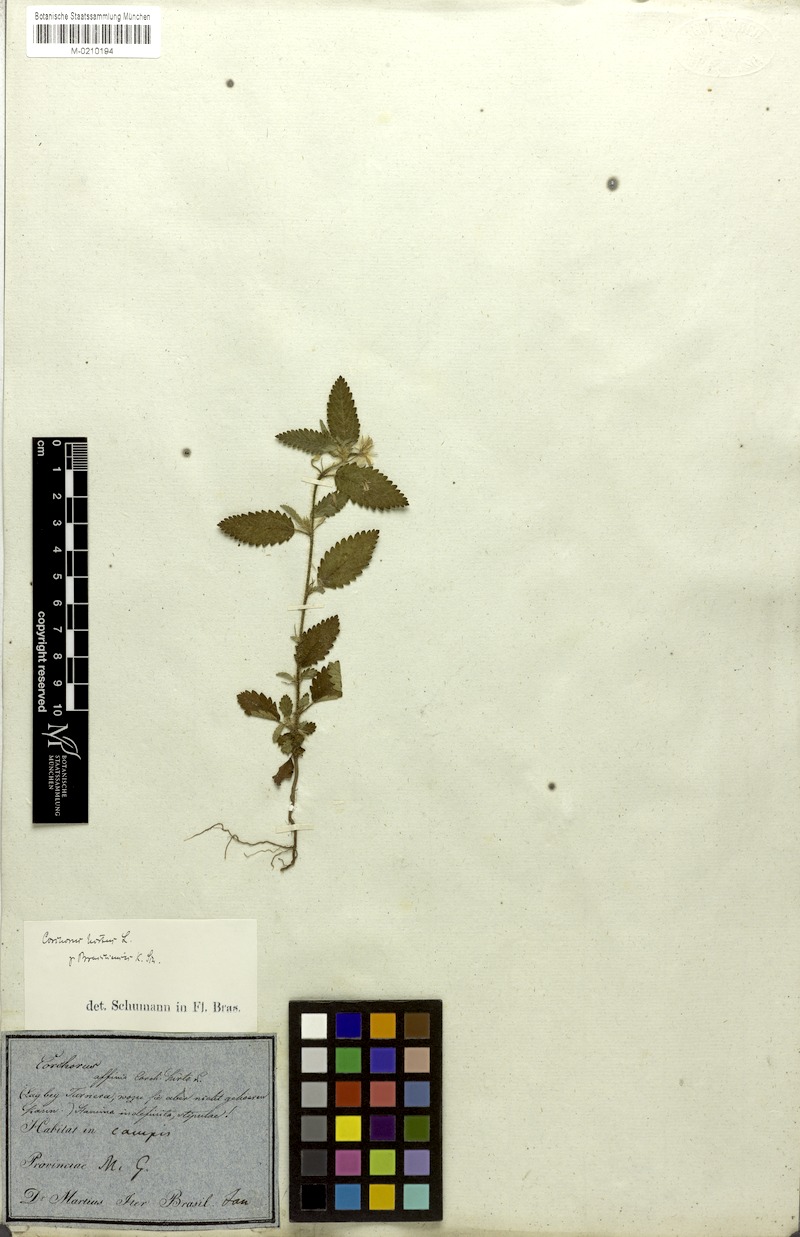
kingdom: Plantae
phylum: Tracheophyta
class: Magnoliopsida
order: Malvales
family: Malvaceae
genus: Corchorus
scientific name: Corchorus hirtus
